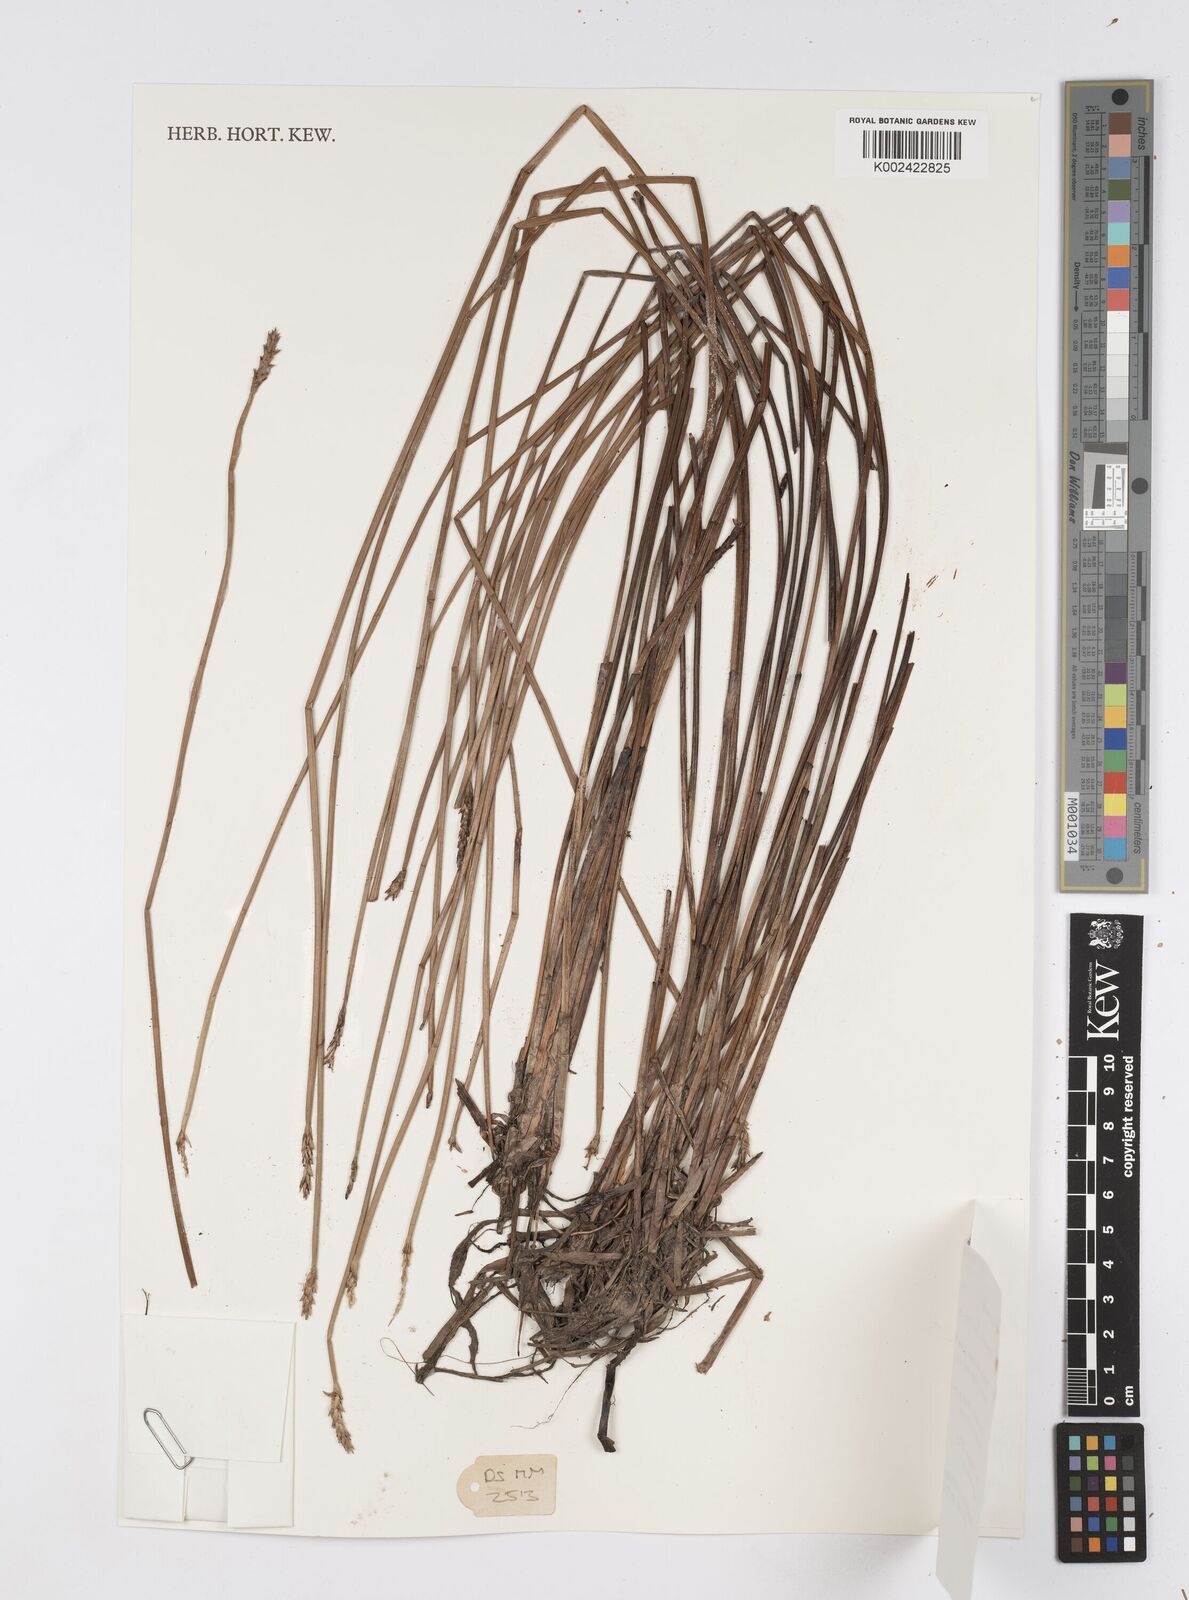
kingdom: Plantae
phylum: Tracheophyta
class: Liliopsida
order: Poales
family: Cyperaceae
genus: Eleocharis
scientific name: Eleocharis ochrostachys
